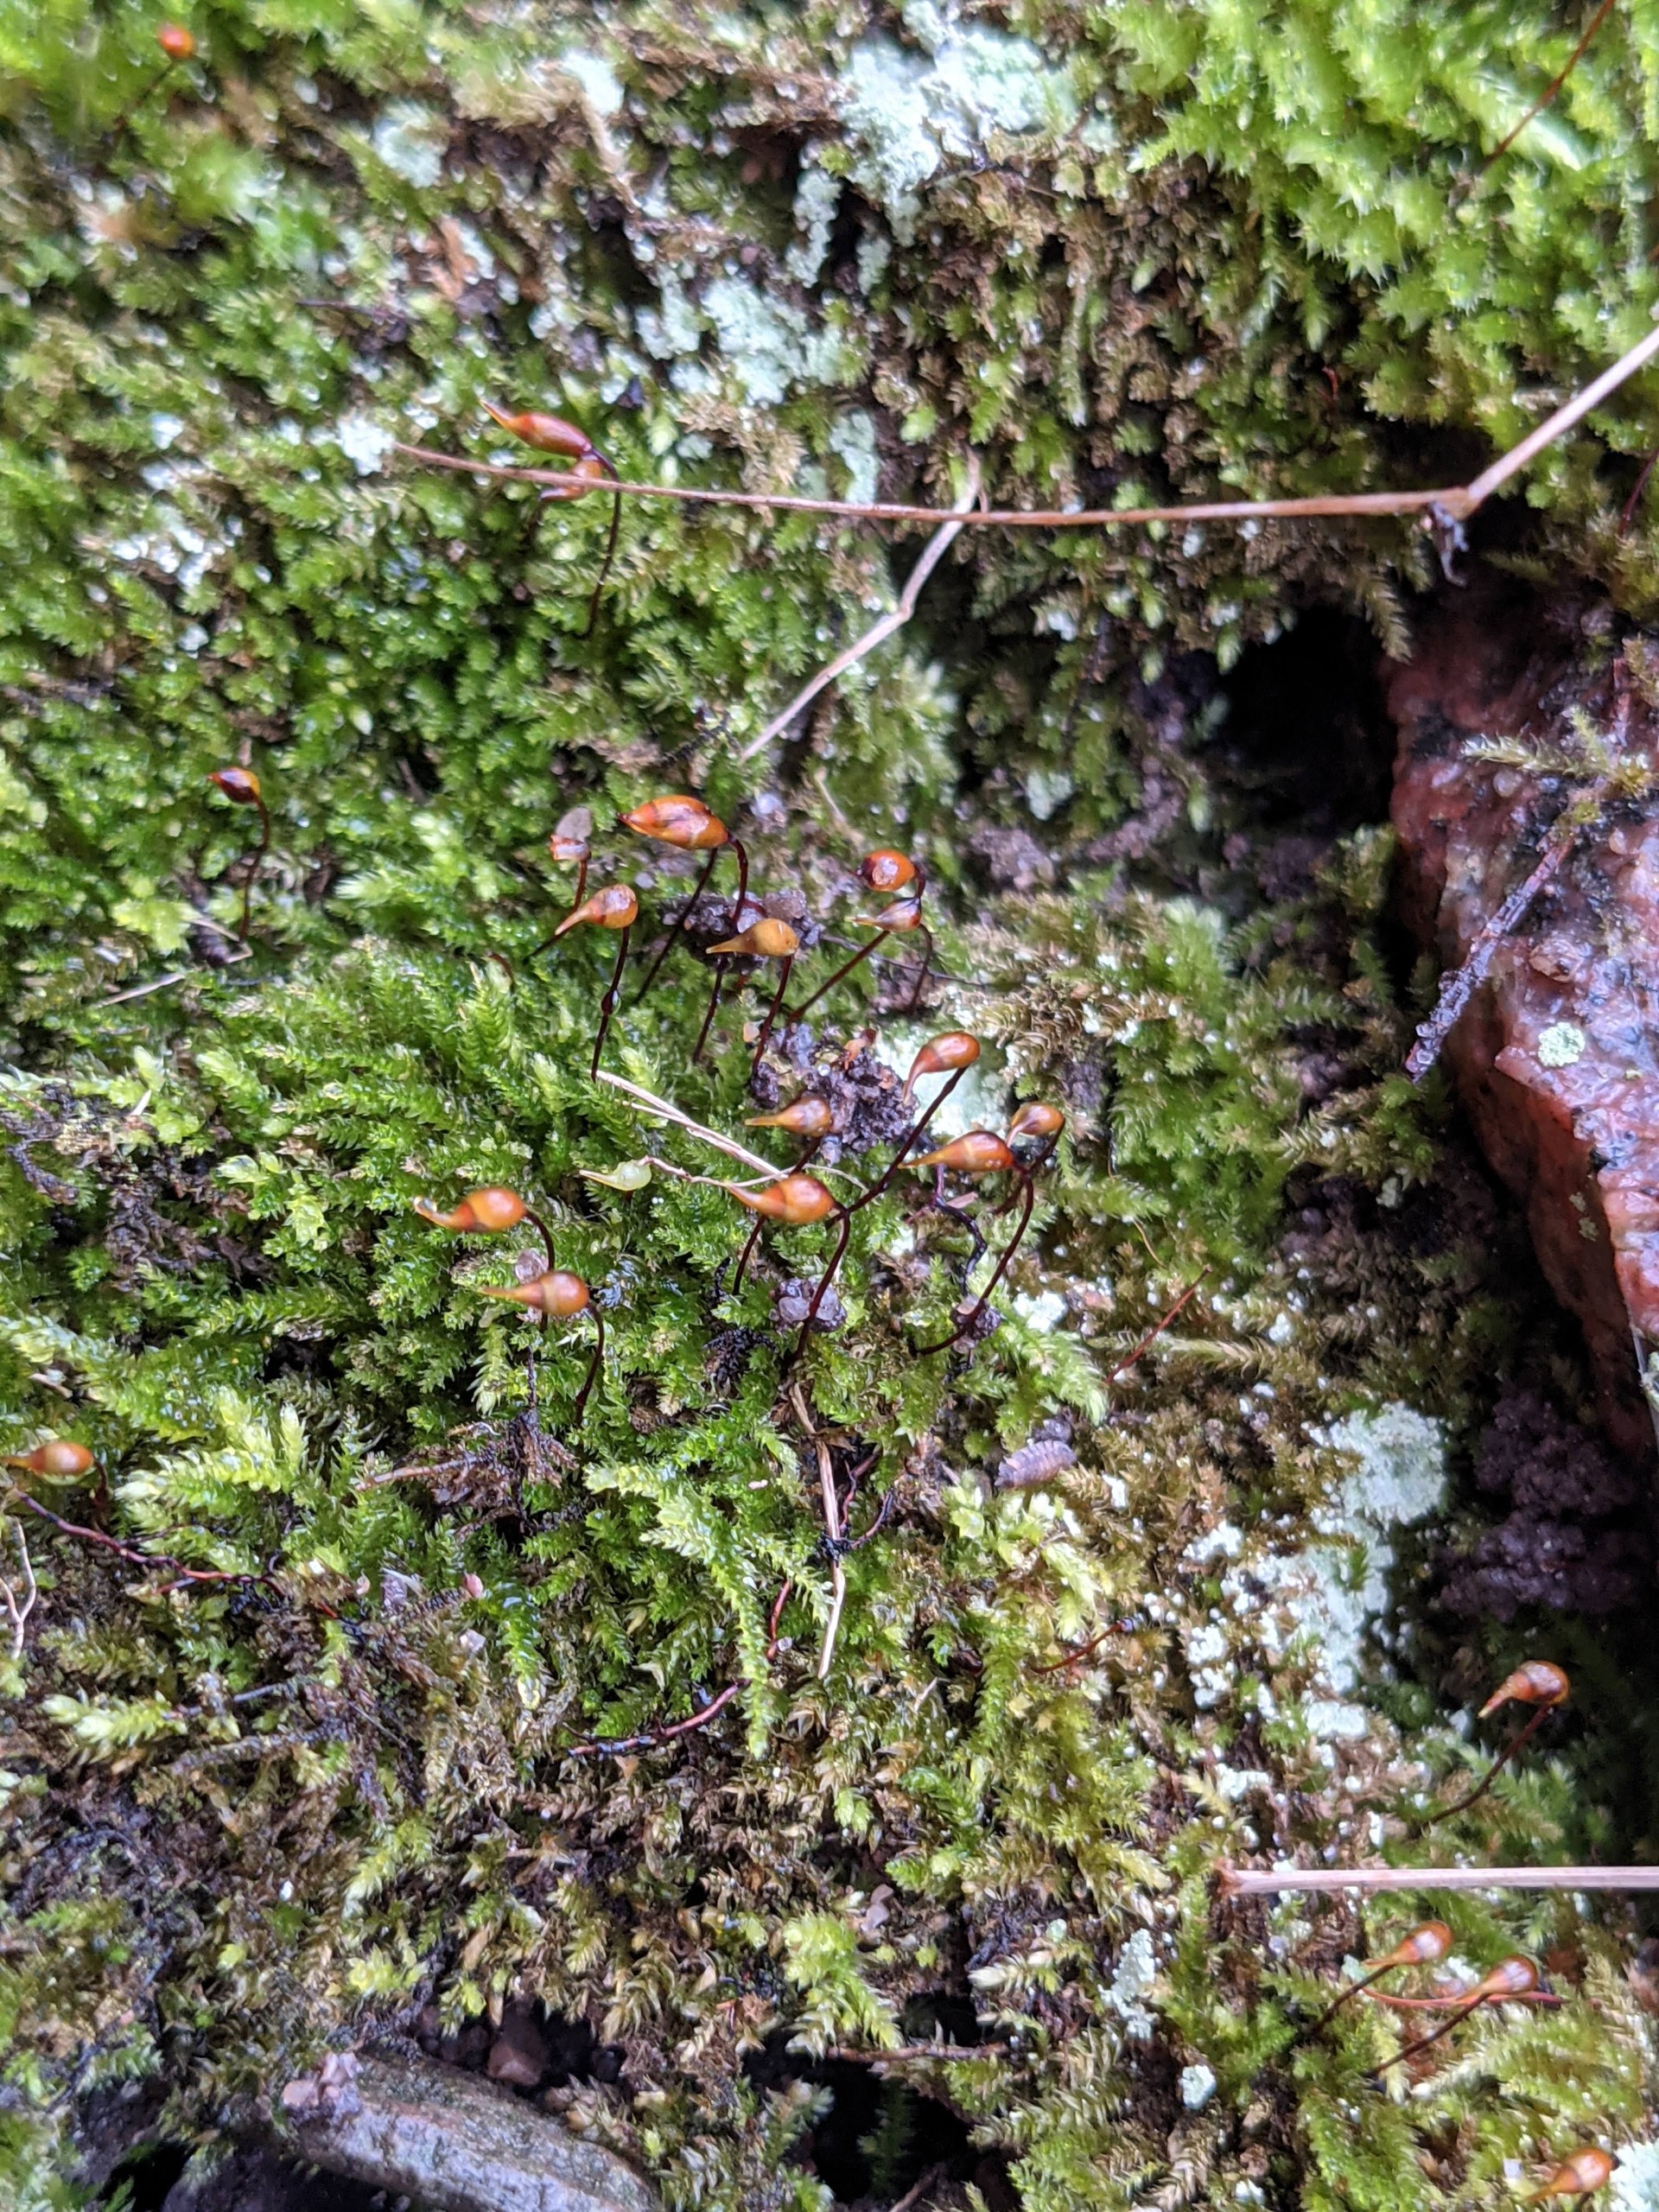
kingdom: Plantae
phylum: Bryophyta
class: Bryopsida
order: Hypnales
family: Brachytheciaceae
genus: Oxyrrhynchium
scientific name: Oxyrrhynchium schleicheri
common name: Vredet vortetand
